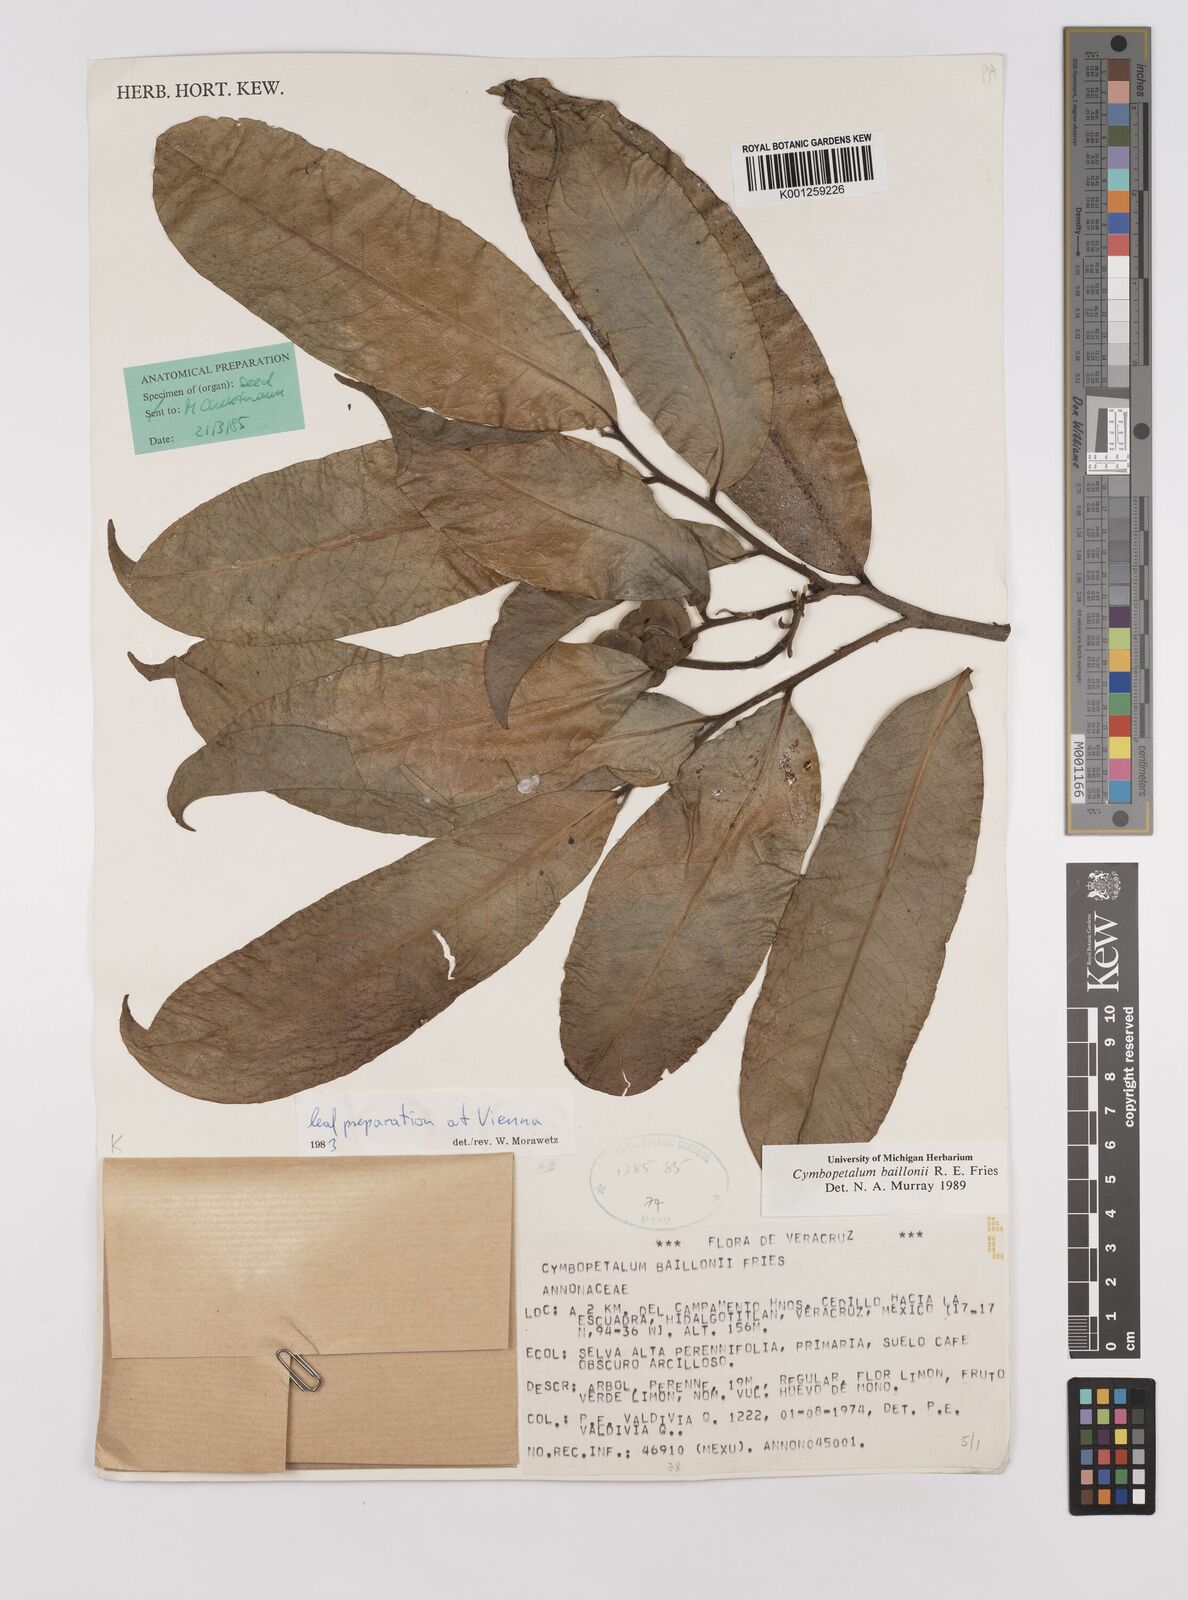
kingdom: Plantae
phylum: Tracheophyta
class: Magnoliopsida
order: Magnoliales
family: Annonaceae
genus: Cymbopetalum
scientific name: Cymbopetalum baillonii
